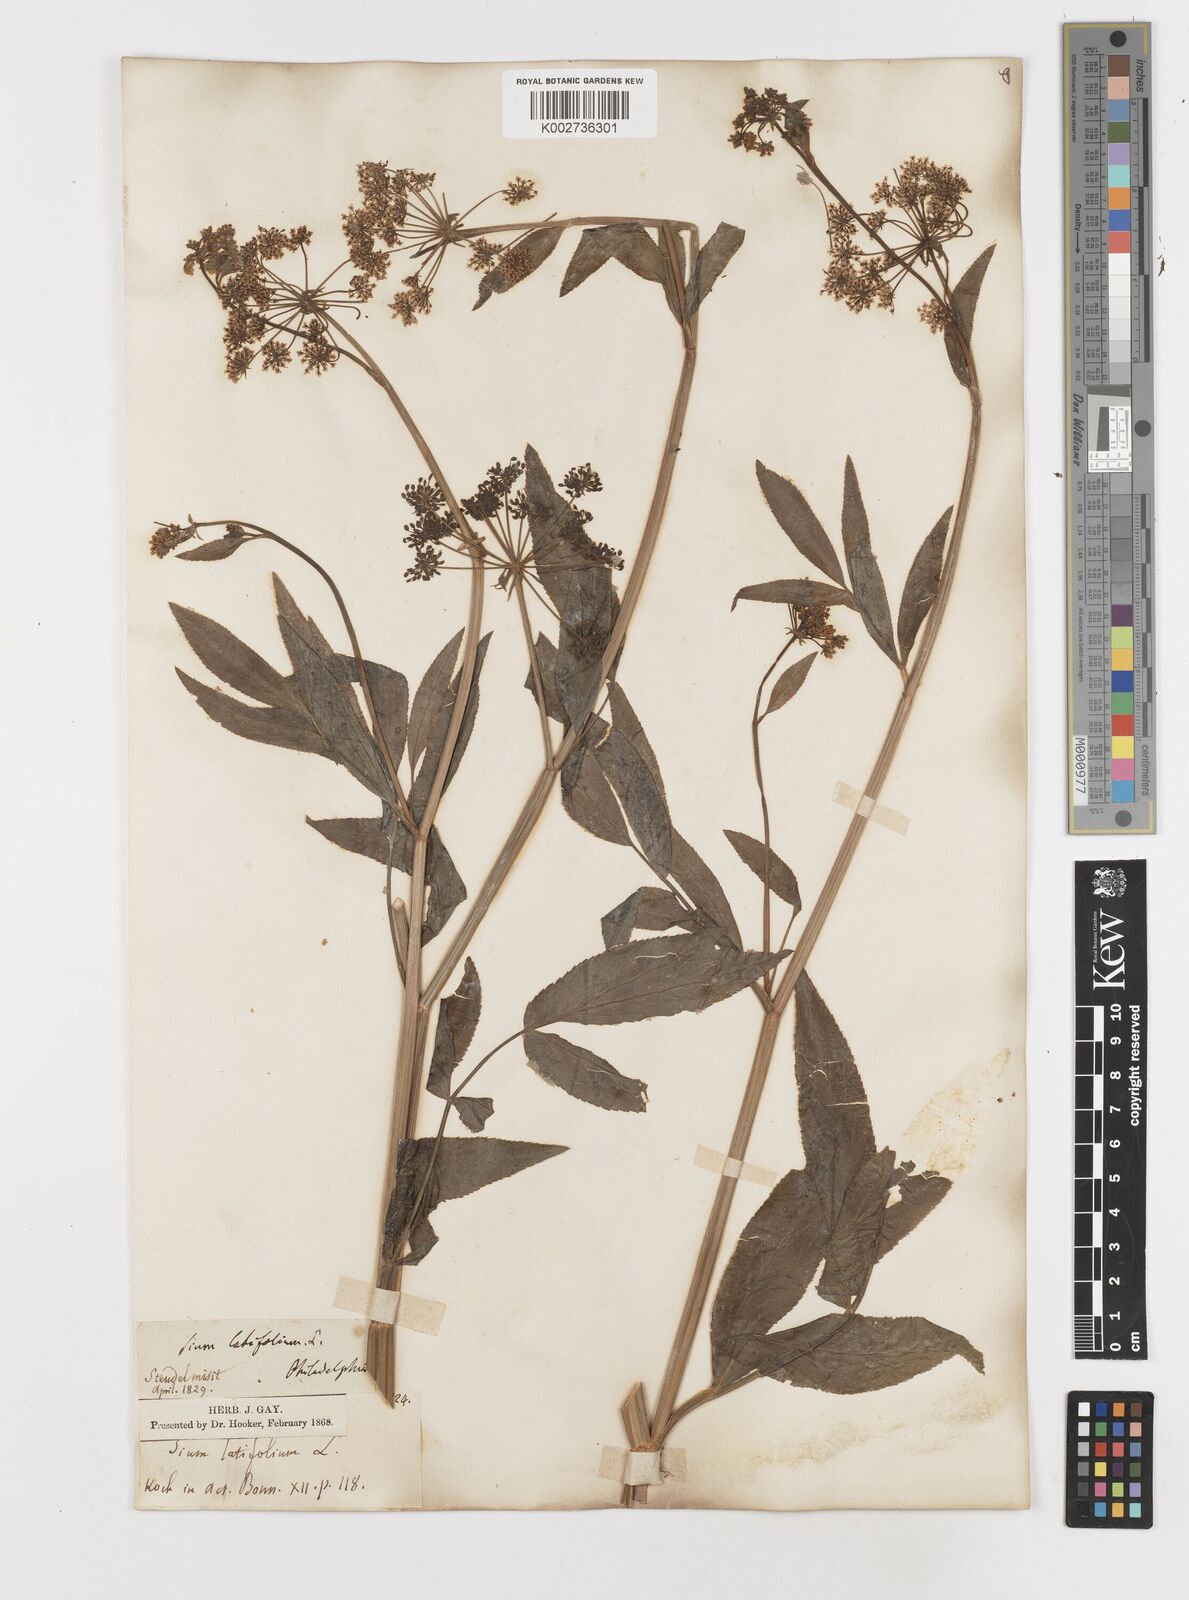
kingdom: Plantae
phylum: Tracheophyta
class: Magnoliopsida
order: Apiales
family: Apiaceae
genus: Sium
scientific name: Sium latifolium
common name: Greater water-parsnip
